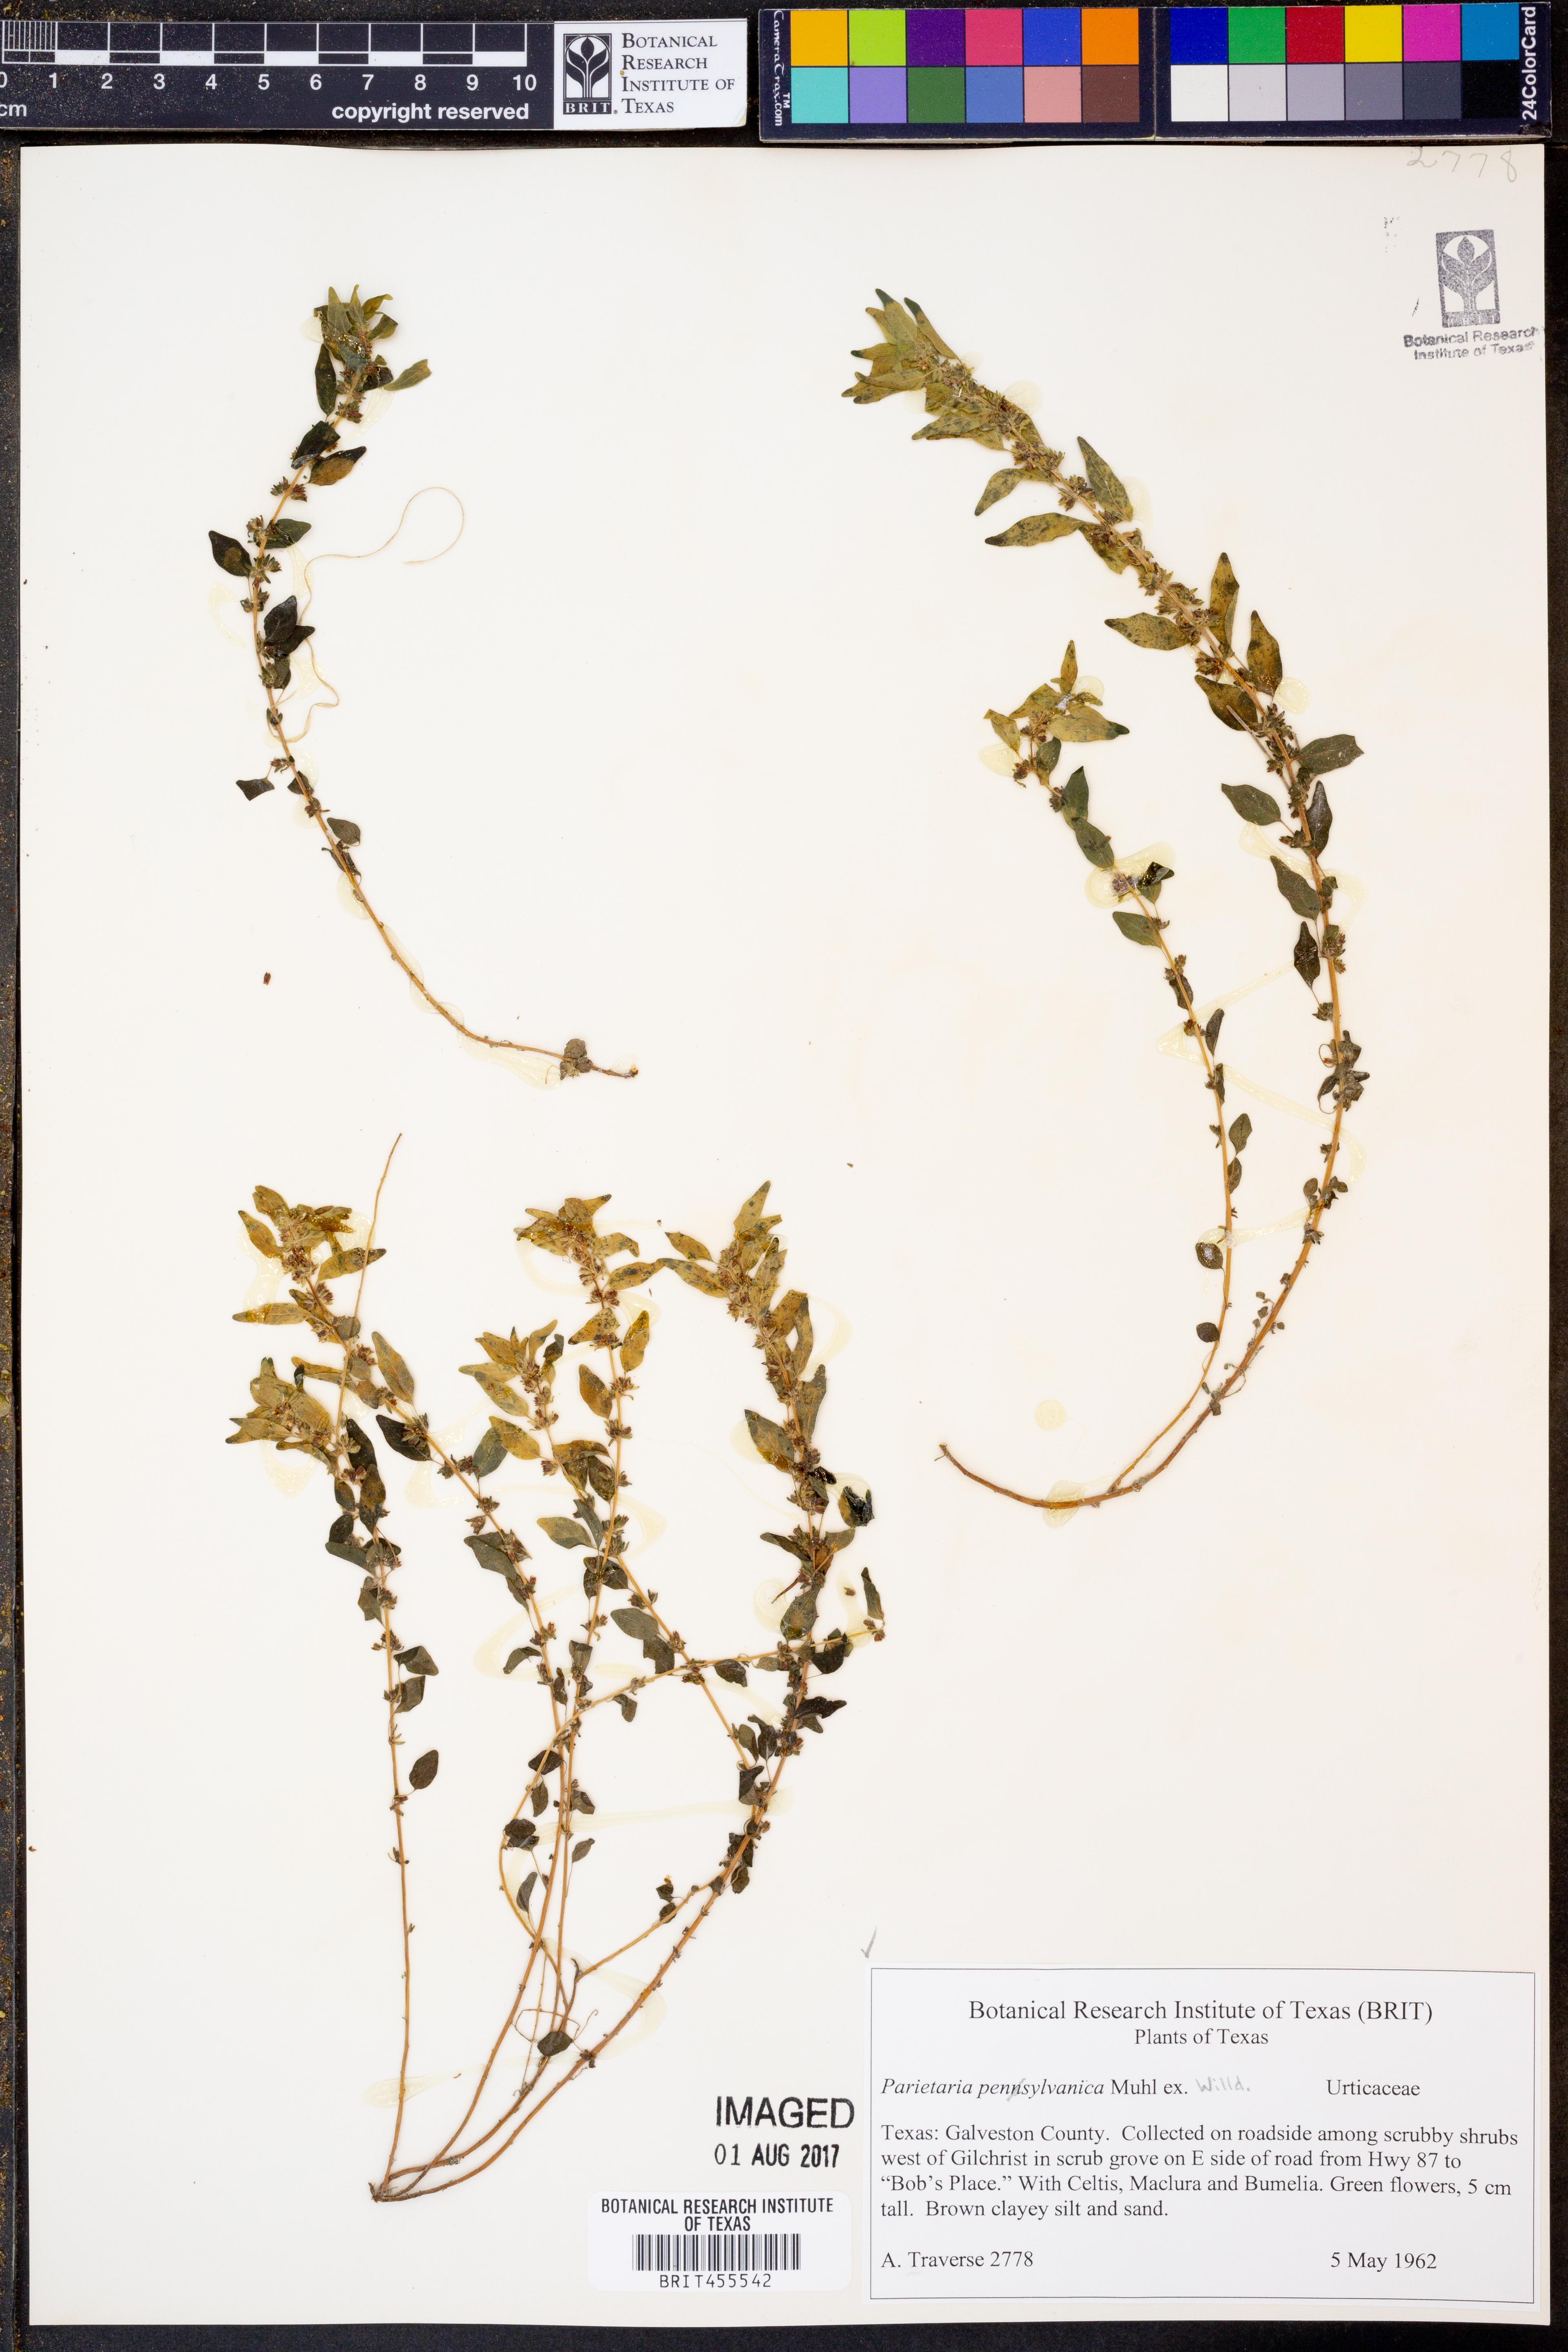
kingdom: Plantae
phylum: Tracheophyta
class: Magnoliopsida
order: Rosales
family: Urticaceae
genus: Parietaria
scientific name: Parietaria pensylvanica
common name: Pennsylvania pellitory
